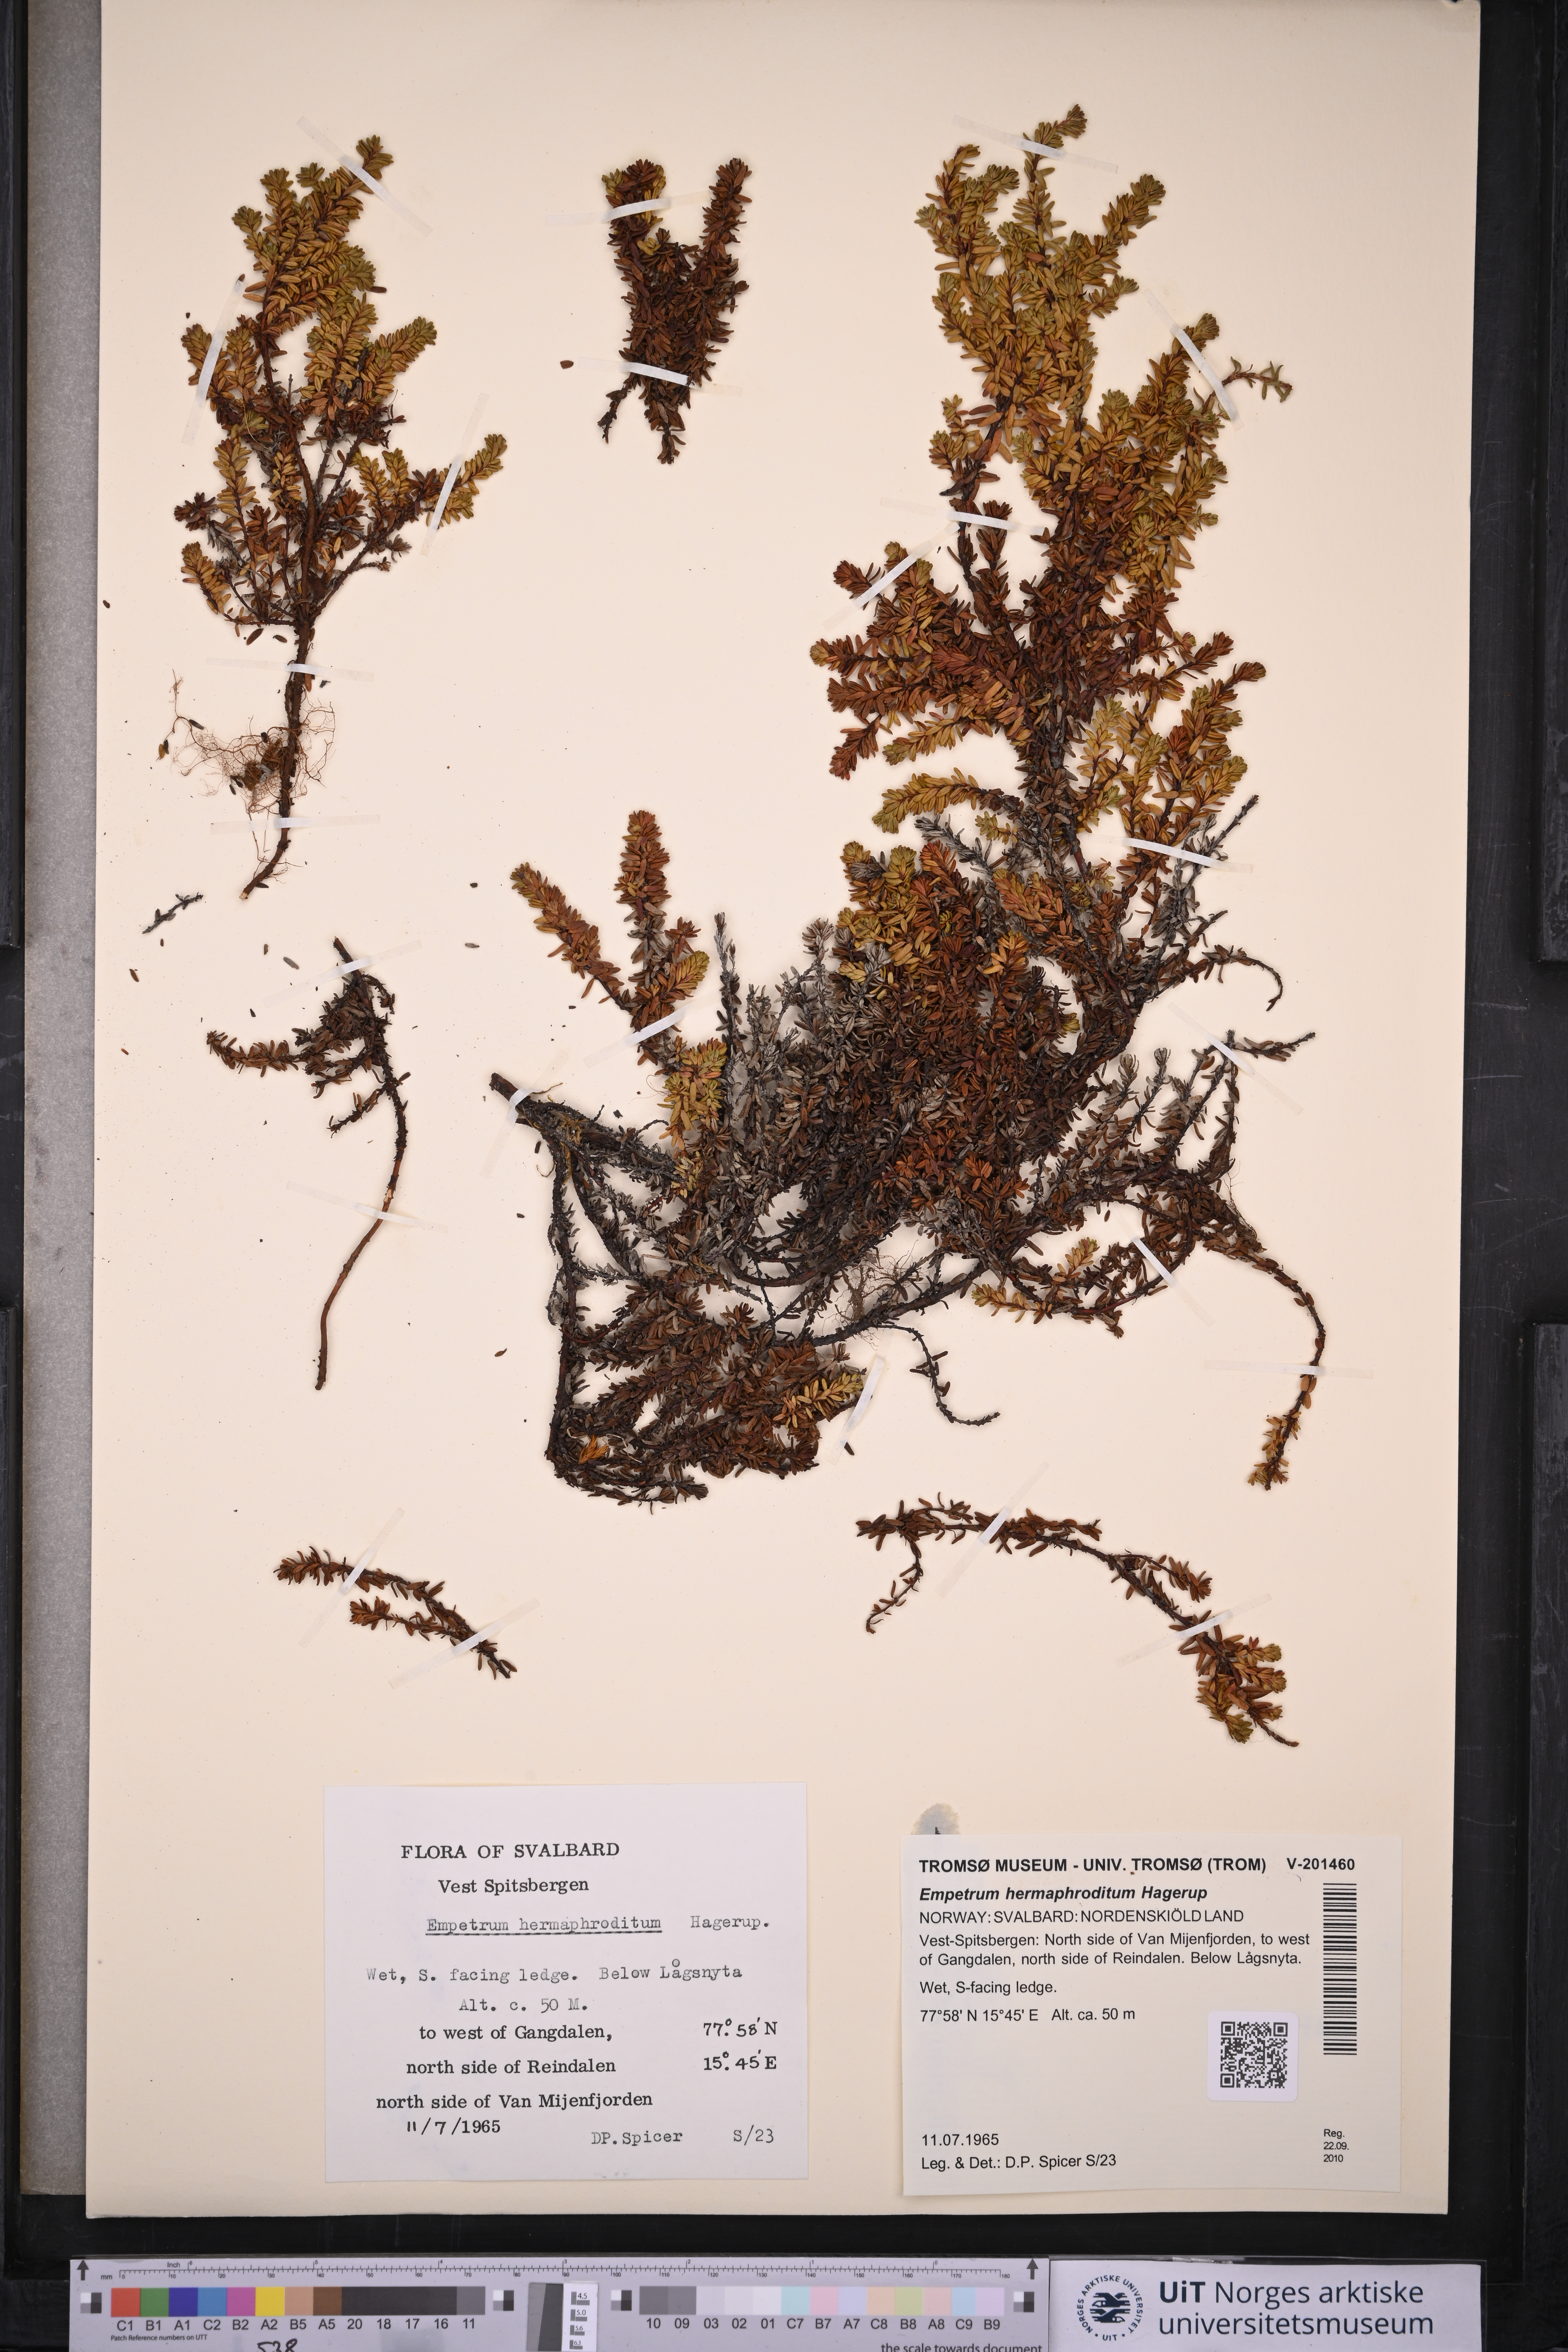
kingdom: Plantae
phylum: Tracheophyta
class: Magnoliopsida
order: Ericales
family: Ericaceae
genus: Empetrum
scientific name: Empetrum hermaphroditum
